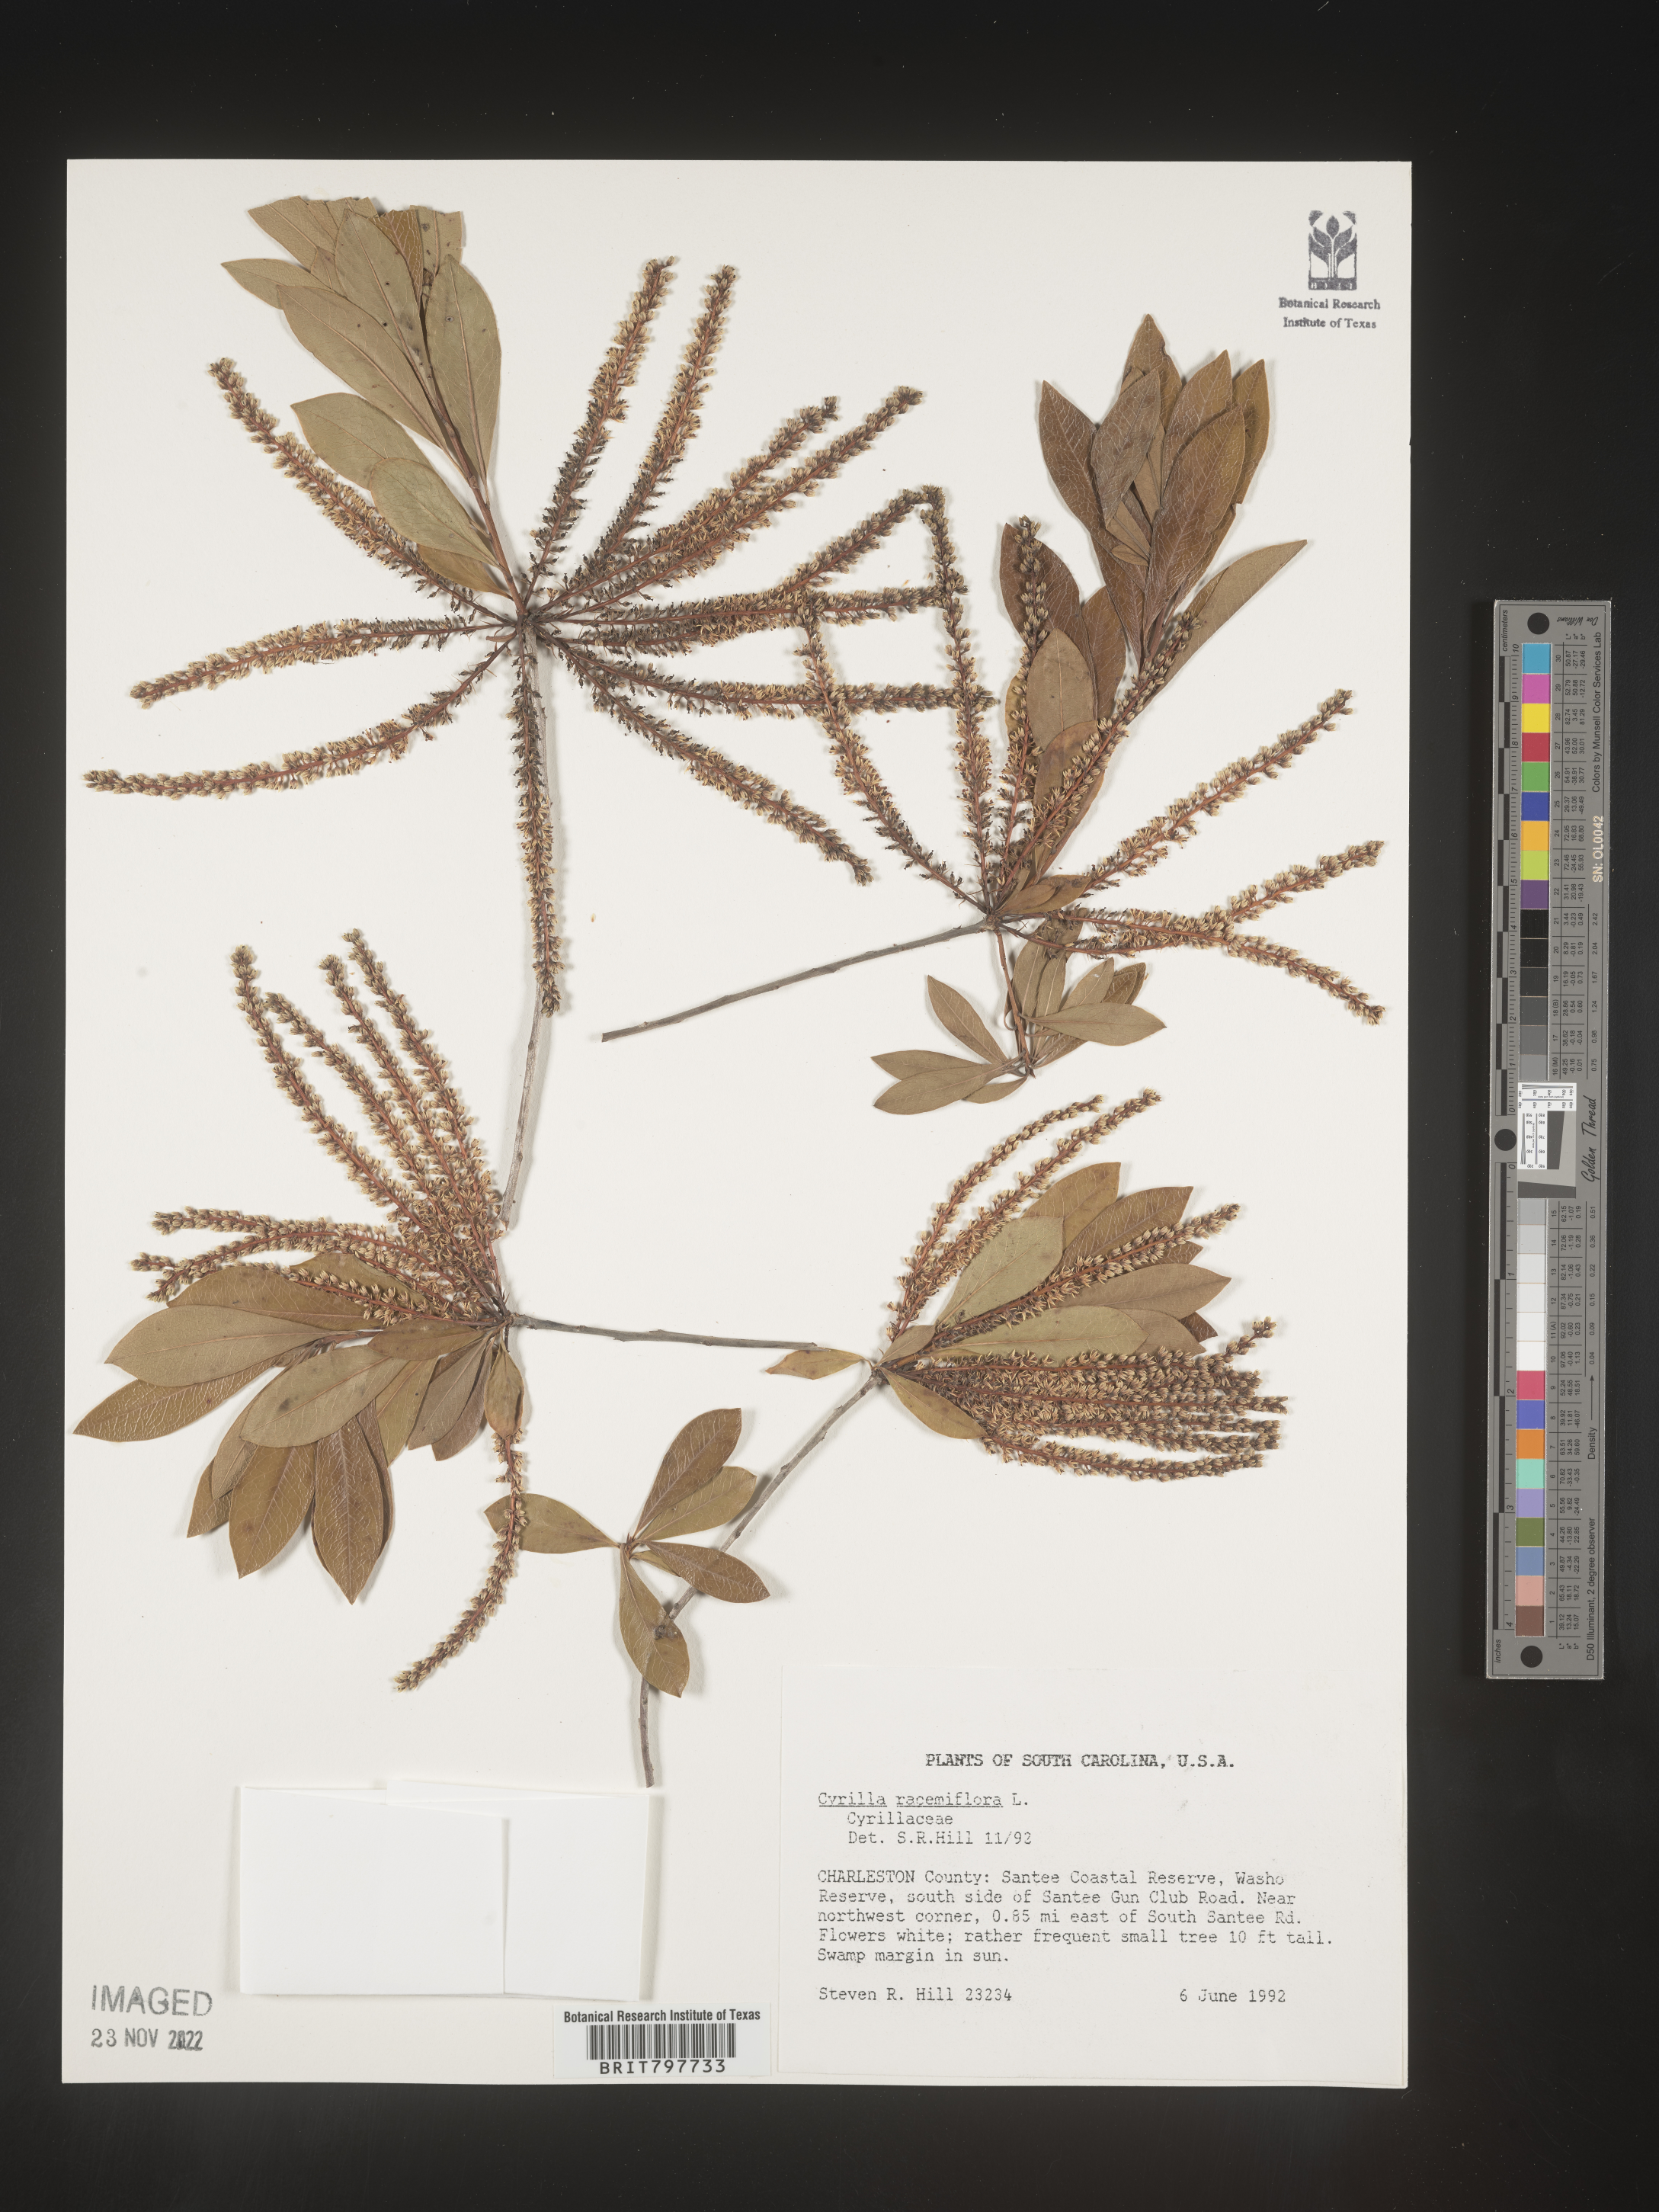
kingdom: Plantae
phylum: Tracheophyta
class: Magnoliopsida
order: Ericales
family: Cyrillaceae
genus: Cyrilla
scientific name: Cyrilla racemiflora
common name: Black titi
